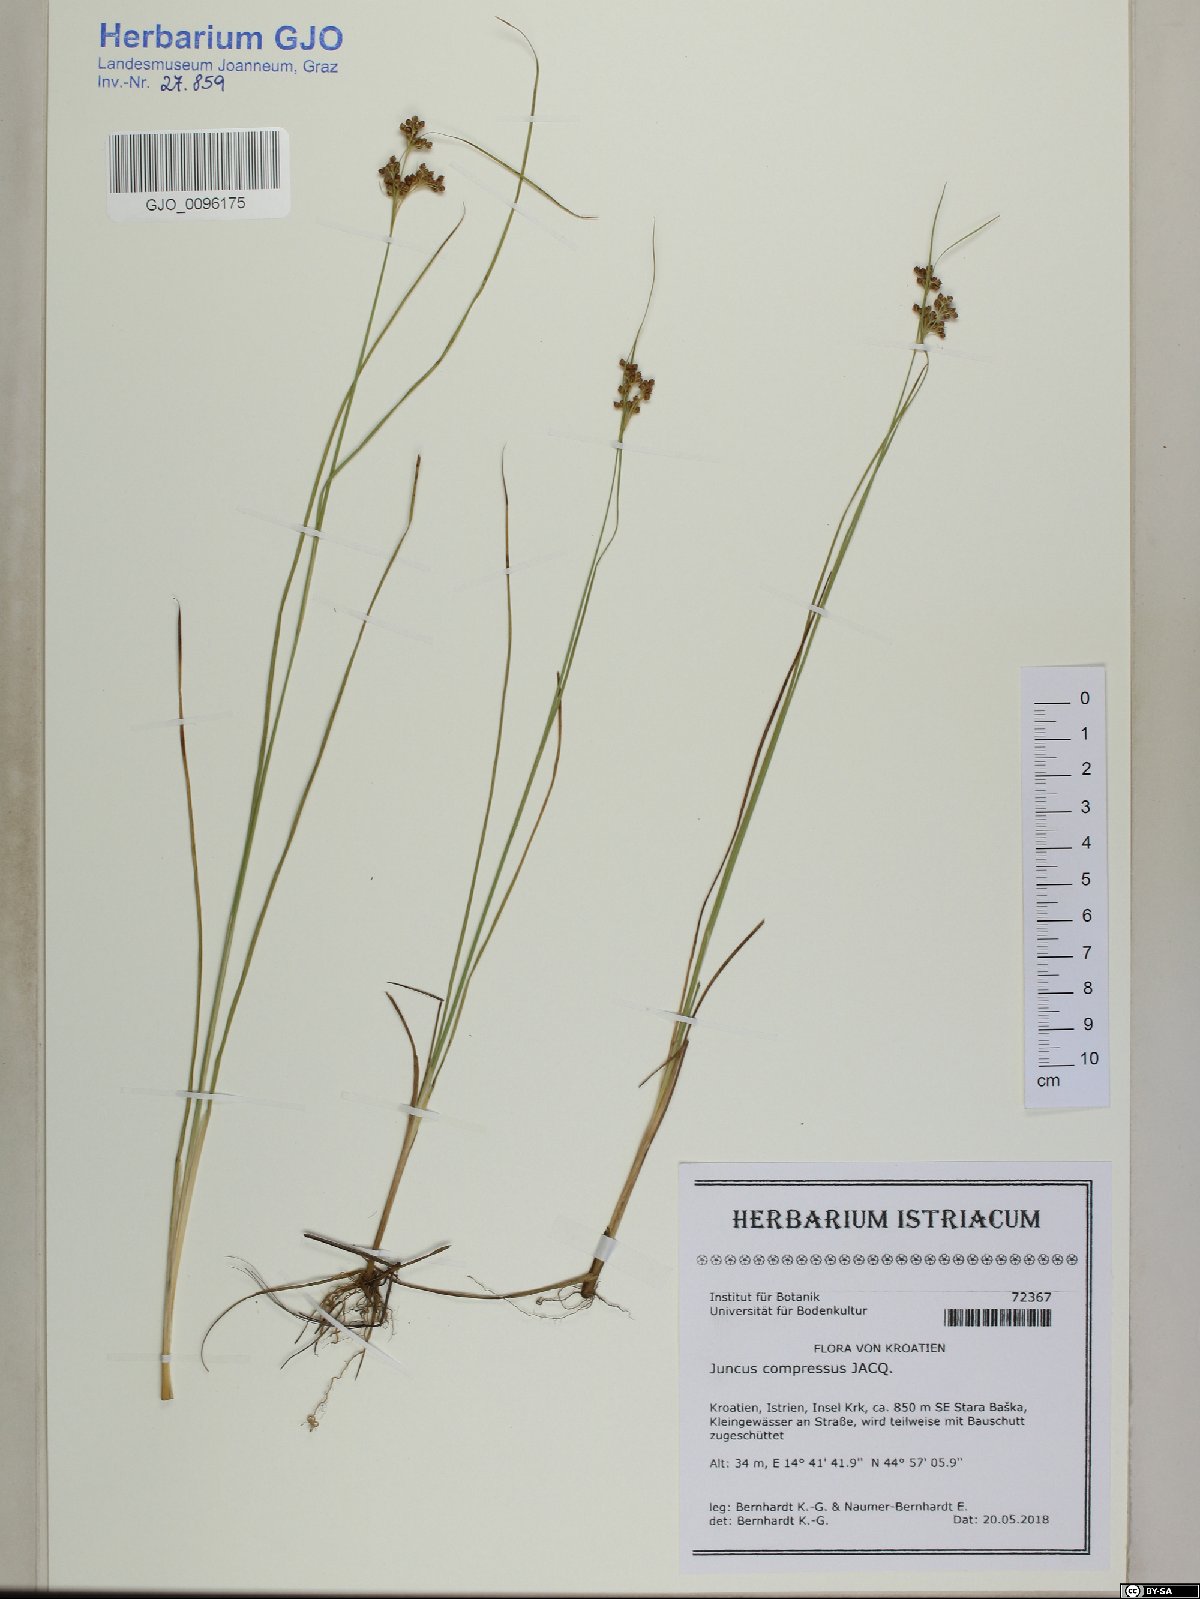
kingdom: Plantae
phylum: Tracheophyta
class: Liliopsida
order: Poales
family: Juncaceae
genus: Juncus
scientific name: Juncus compressus
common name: Round-fruited rush
